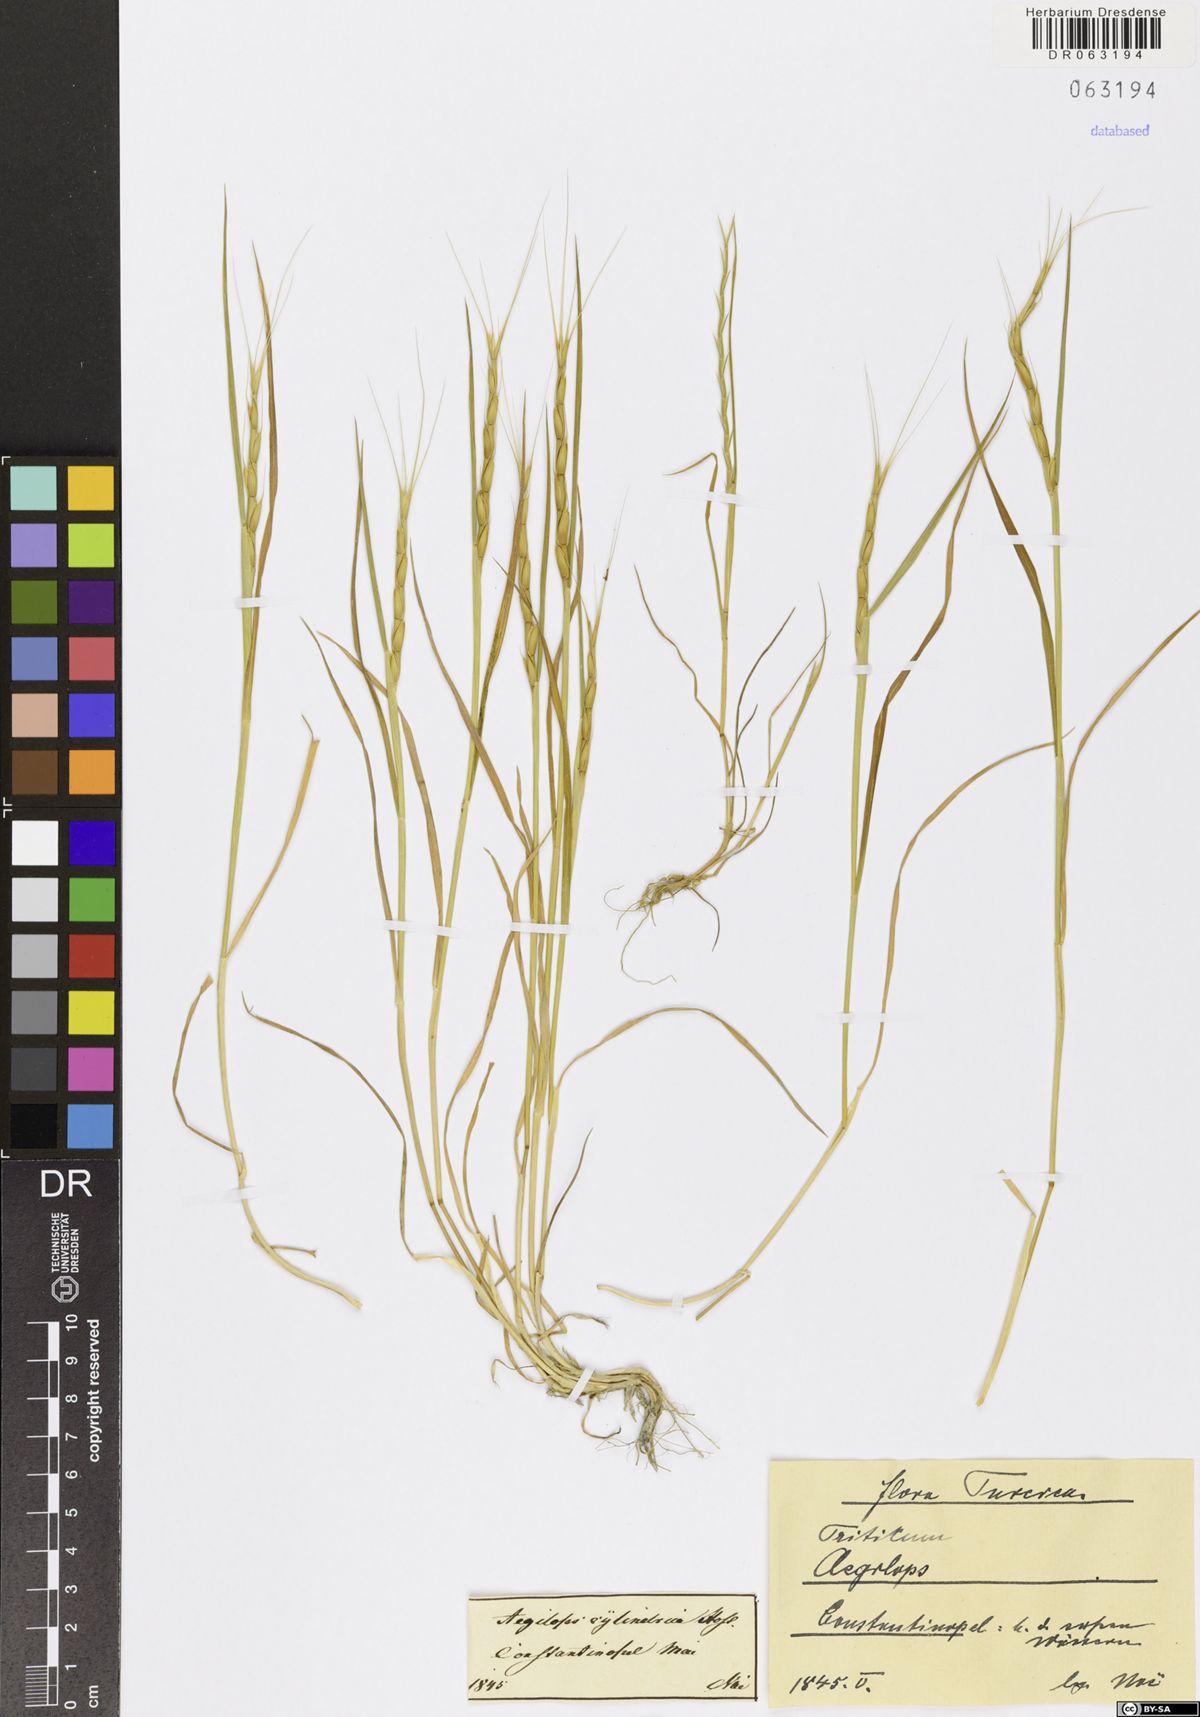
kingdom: Plantae
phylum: Tracheophyta
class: Liliopsida
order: Poales
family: Poaceae
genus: Aegilops
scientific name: Aegilops
